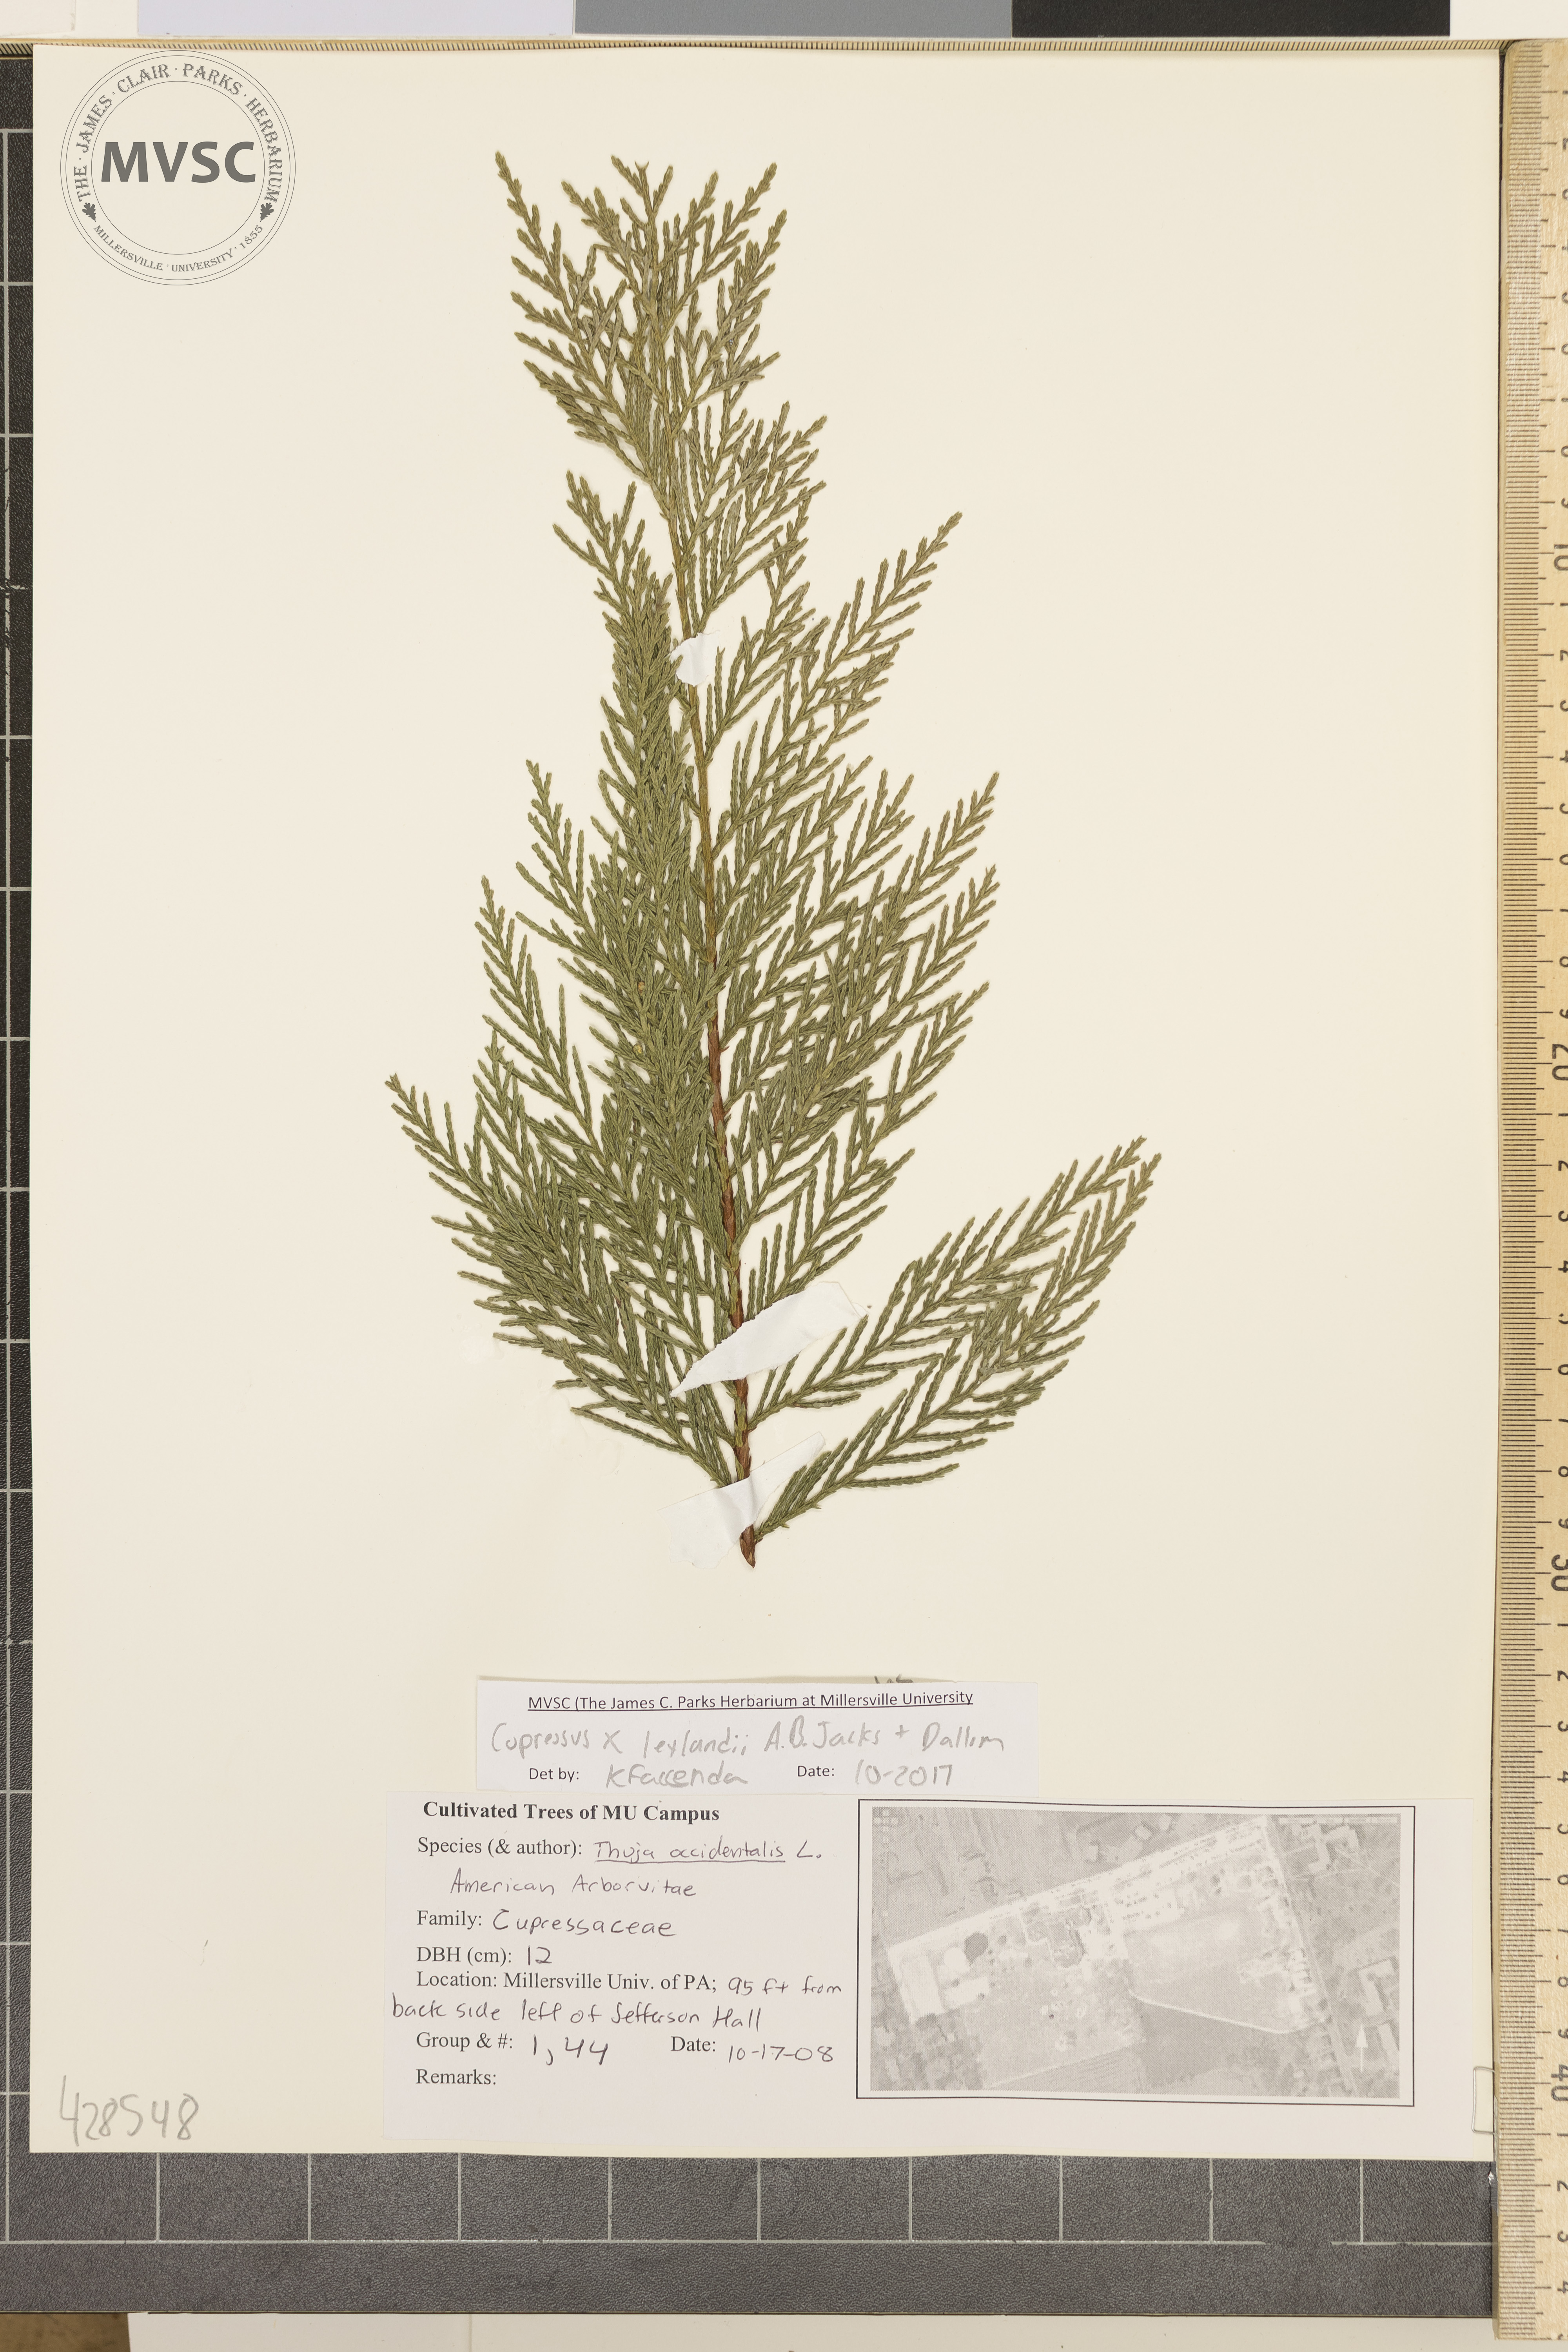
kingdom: Plantae
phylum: Tracheophyta
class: Pinopsida
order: Pinales
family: Cupressaceae
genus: Hesperotropsis
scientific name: Hesperotropsis leylandii
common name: Leyland cypress
